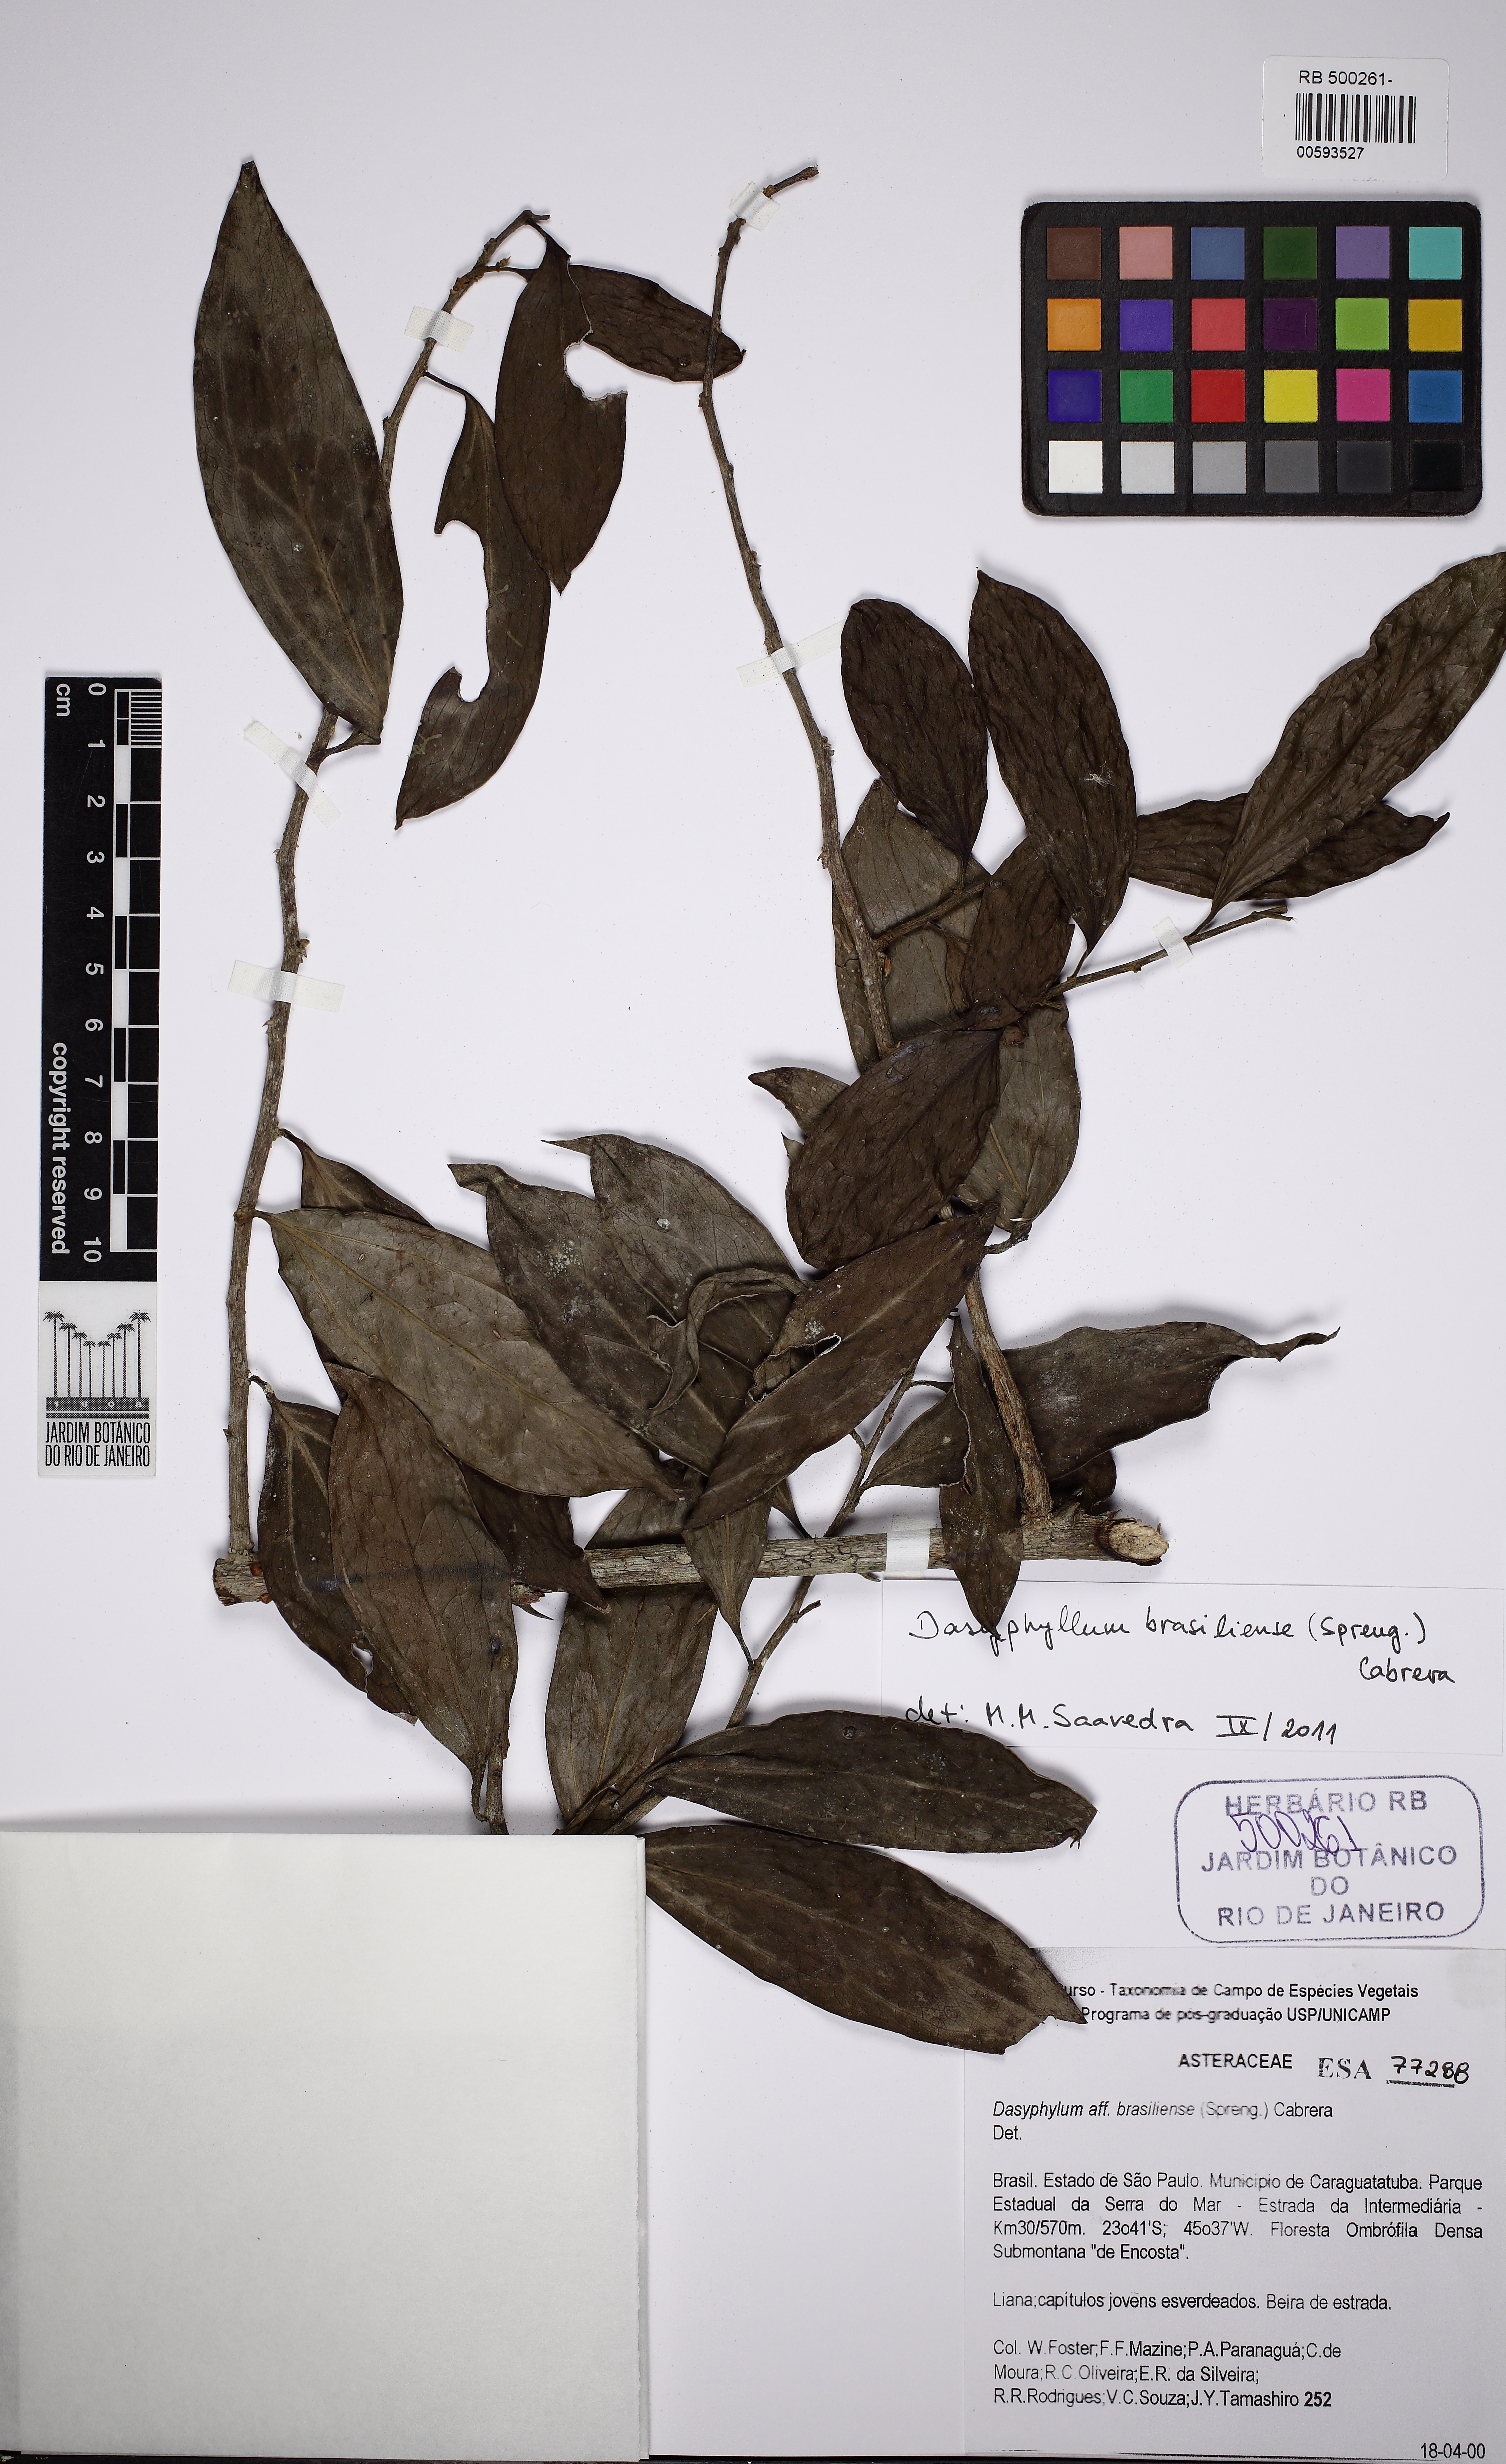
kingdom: Plantae
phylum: Tracheophyta
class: Magnoliopsida
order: Asterales
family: Asteraceae
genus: Dasyphyllum
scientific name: Dasyphyllum brasiliense
